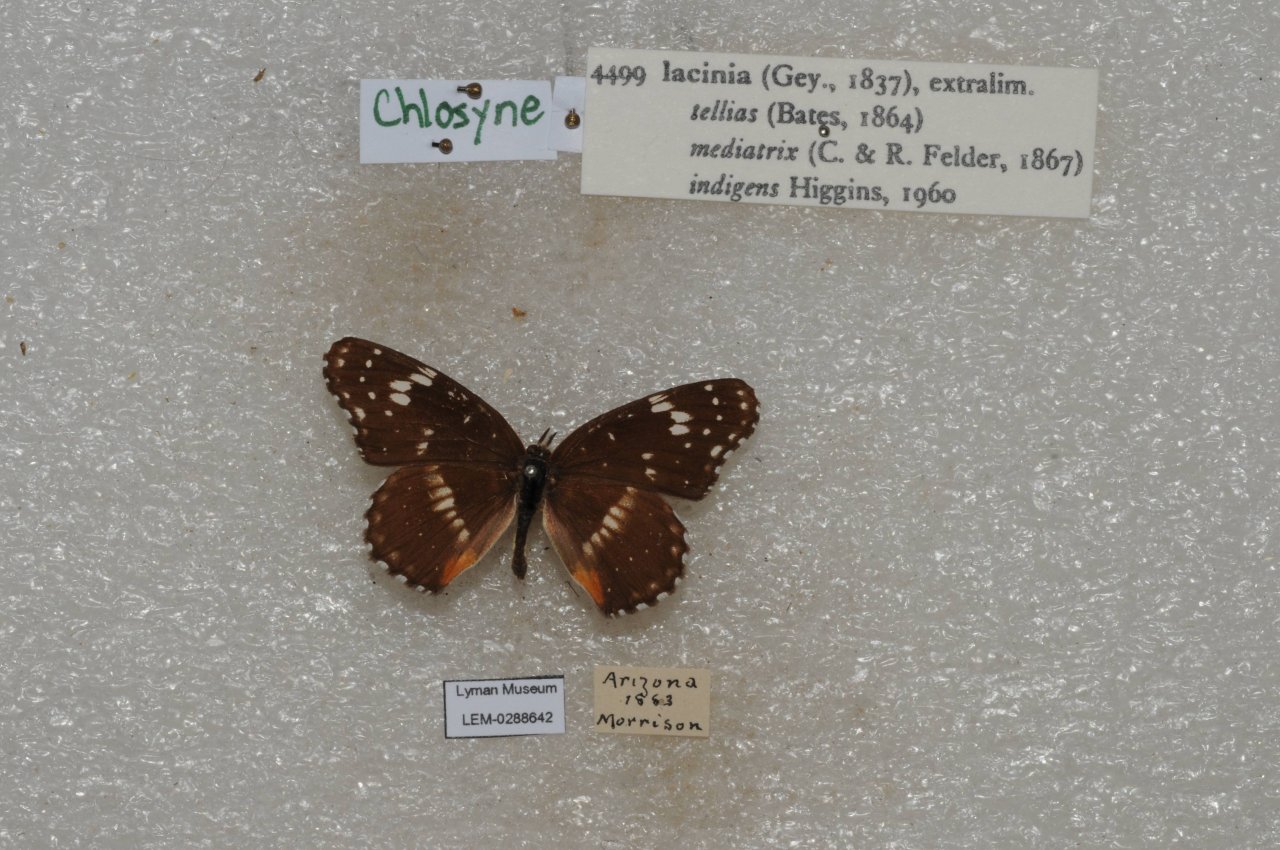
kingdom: Animalia
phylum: Arthropoda
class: Insecta
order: Lepidoptera
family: Nymphalidae
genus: Chlosyne
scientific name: Chlosyne lacinia
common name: Bordered Patch
